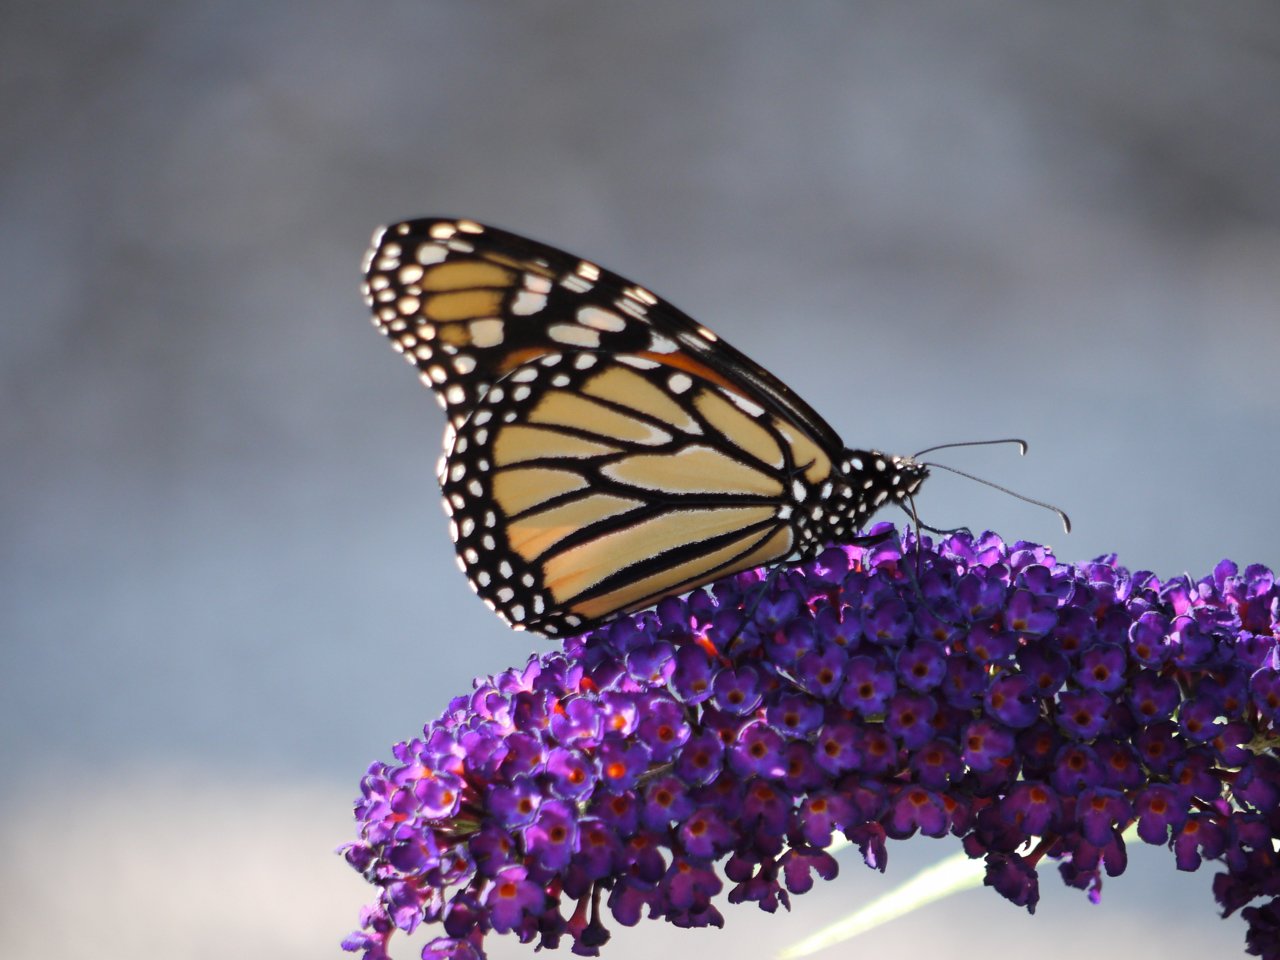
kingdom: Animalia
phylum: Arthropoda
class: Insecta
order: Lepidoptera
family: Nymphalidae
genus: Danaus
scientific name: Danaus plexippus
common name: Monarch
